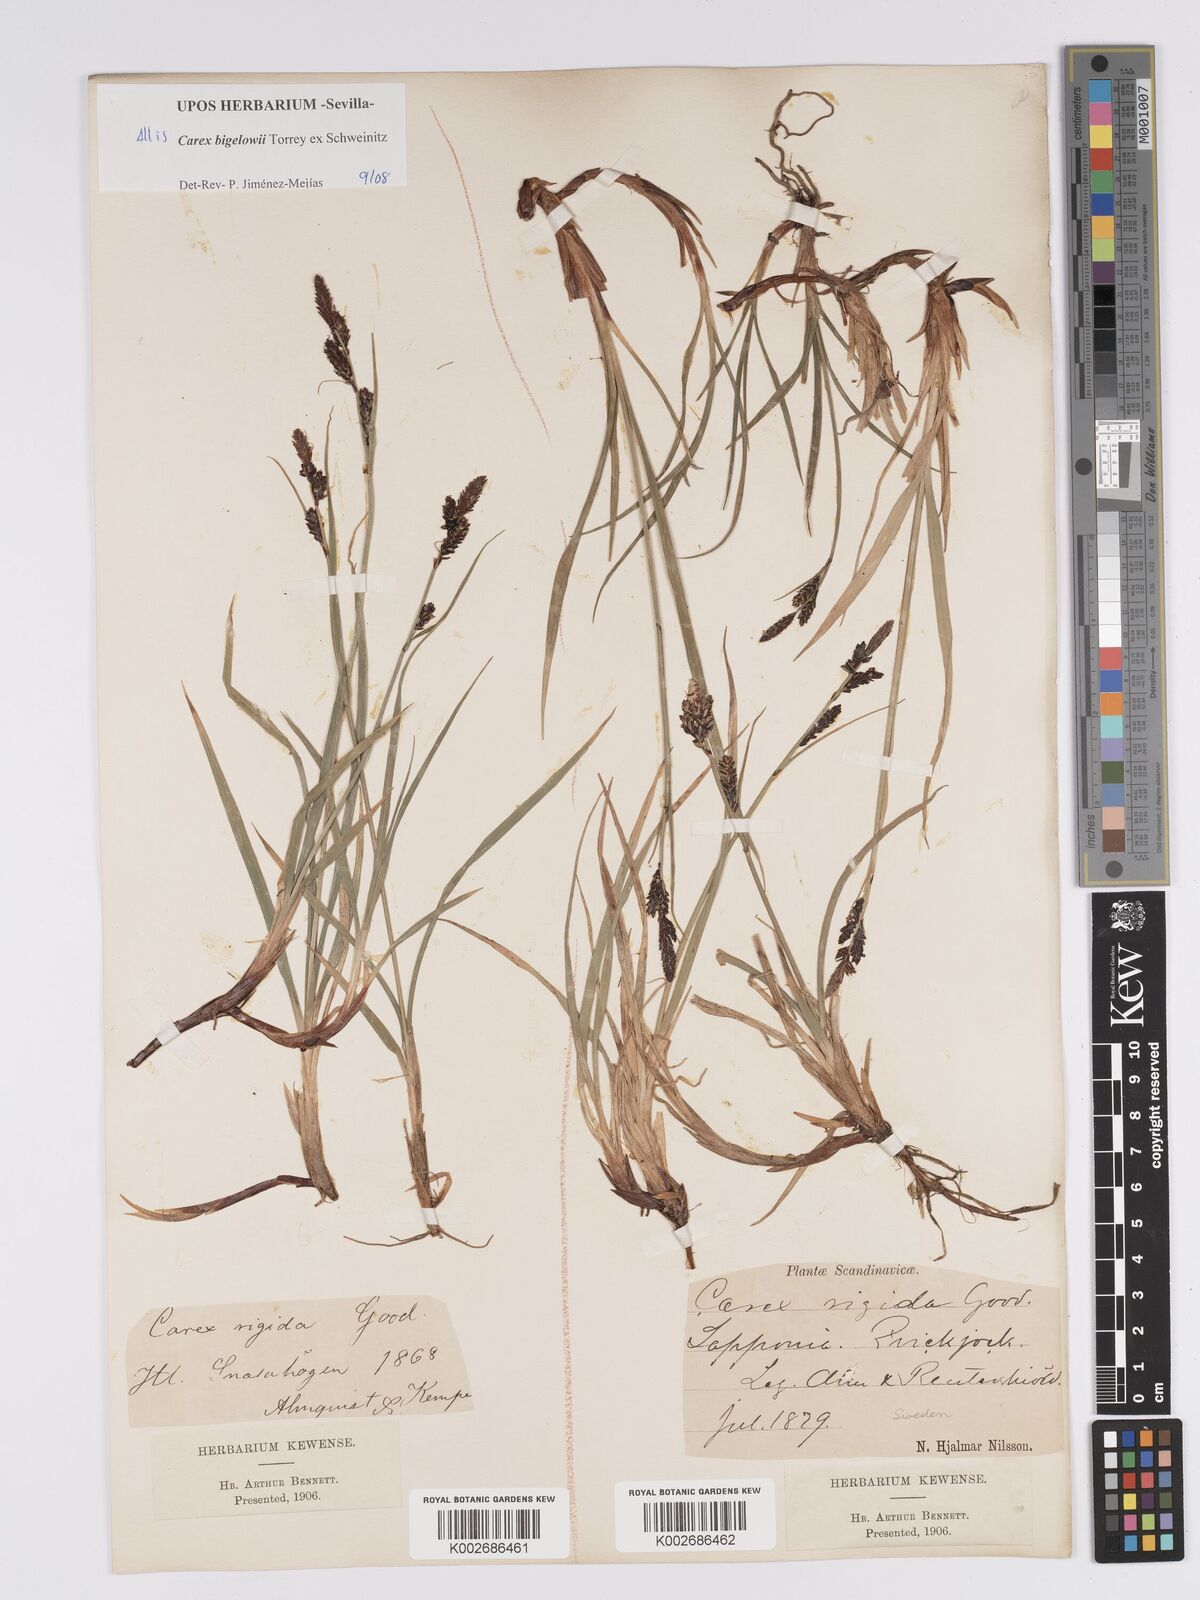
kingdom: Plantae
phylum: Tracheophyta
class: Liliopsida
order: Poales
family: Cyperaceae
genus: Carex
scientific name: Carex bigelowii
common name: Stiff sedge
